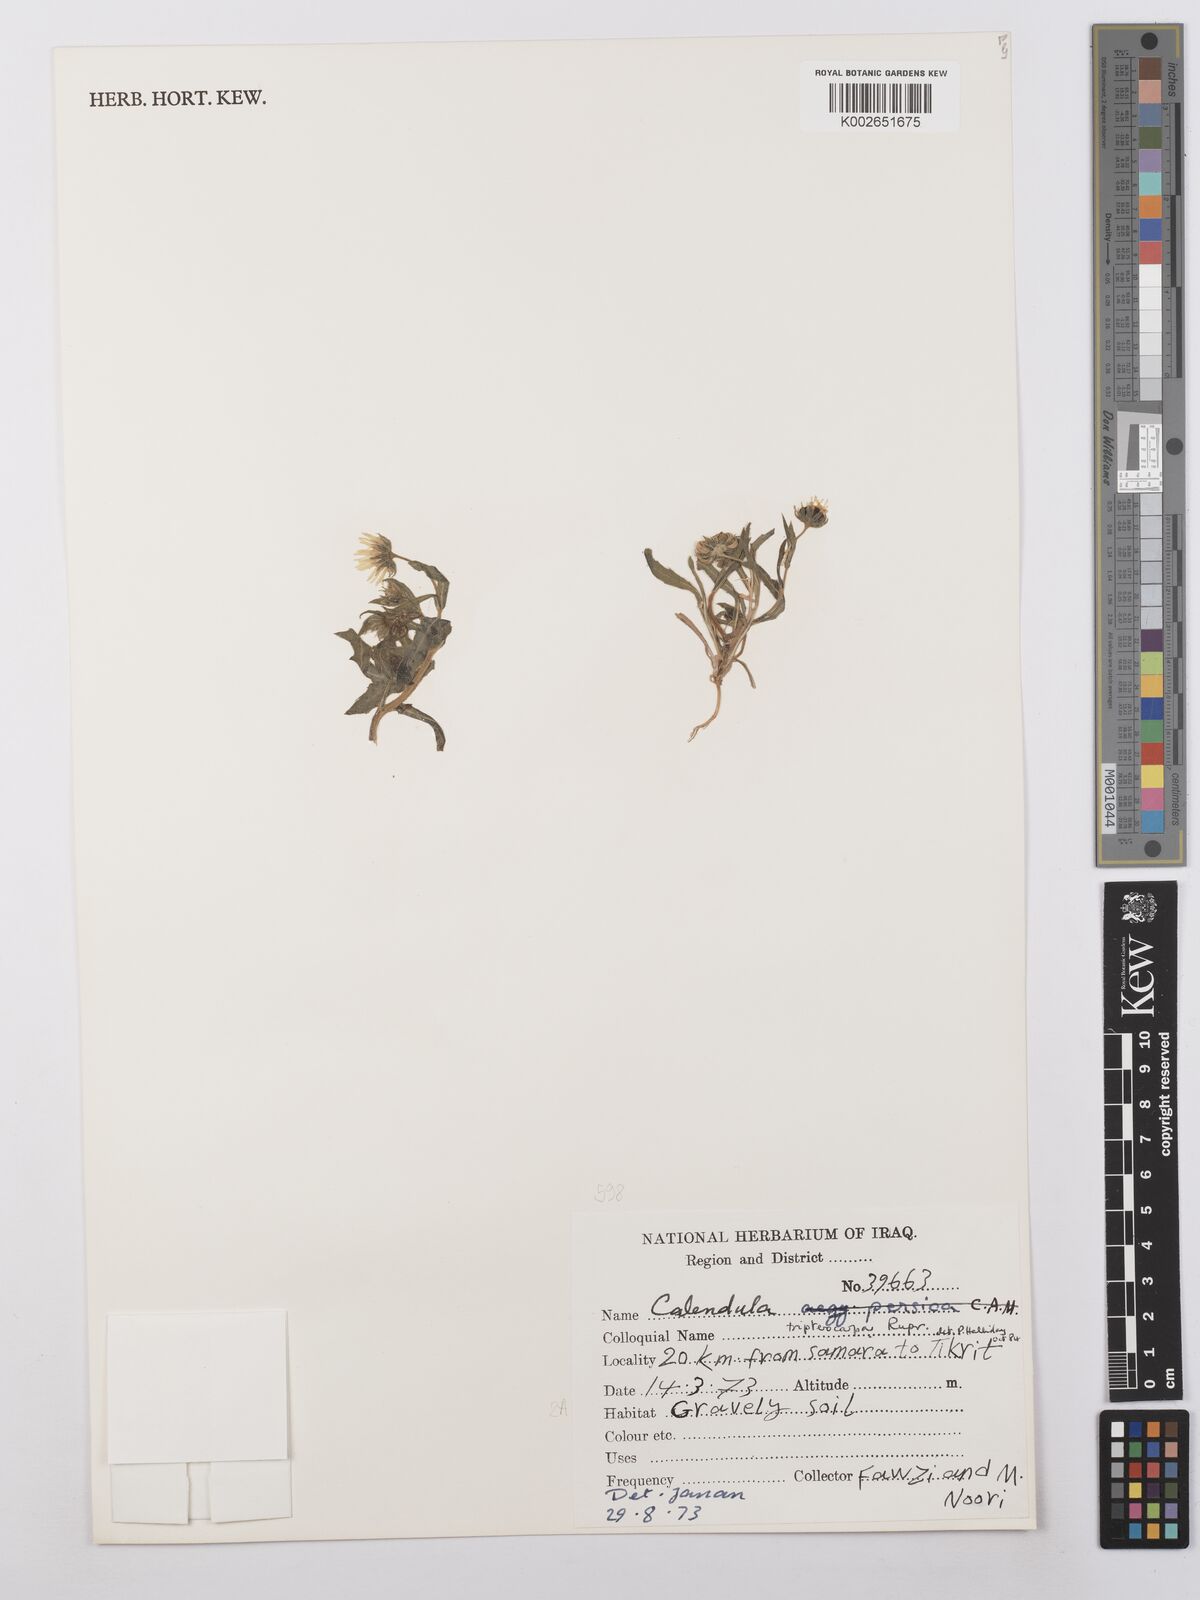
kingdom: Plantae
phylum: Tracheophyta
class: Magnoliopsida
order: Asterales
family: Asteraceae
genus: Calendula
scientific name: Calendula tripterocarpa
